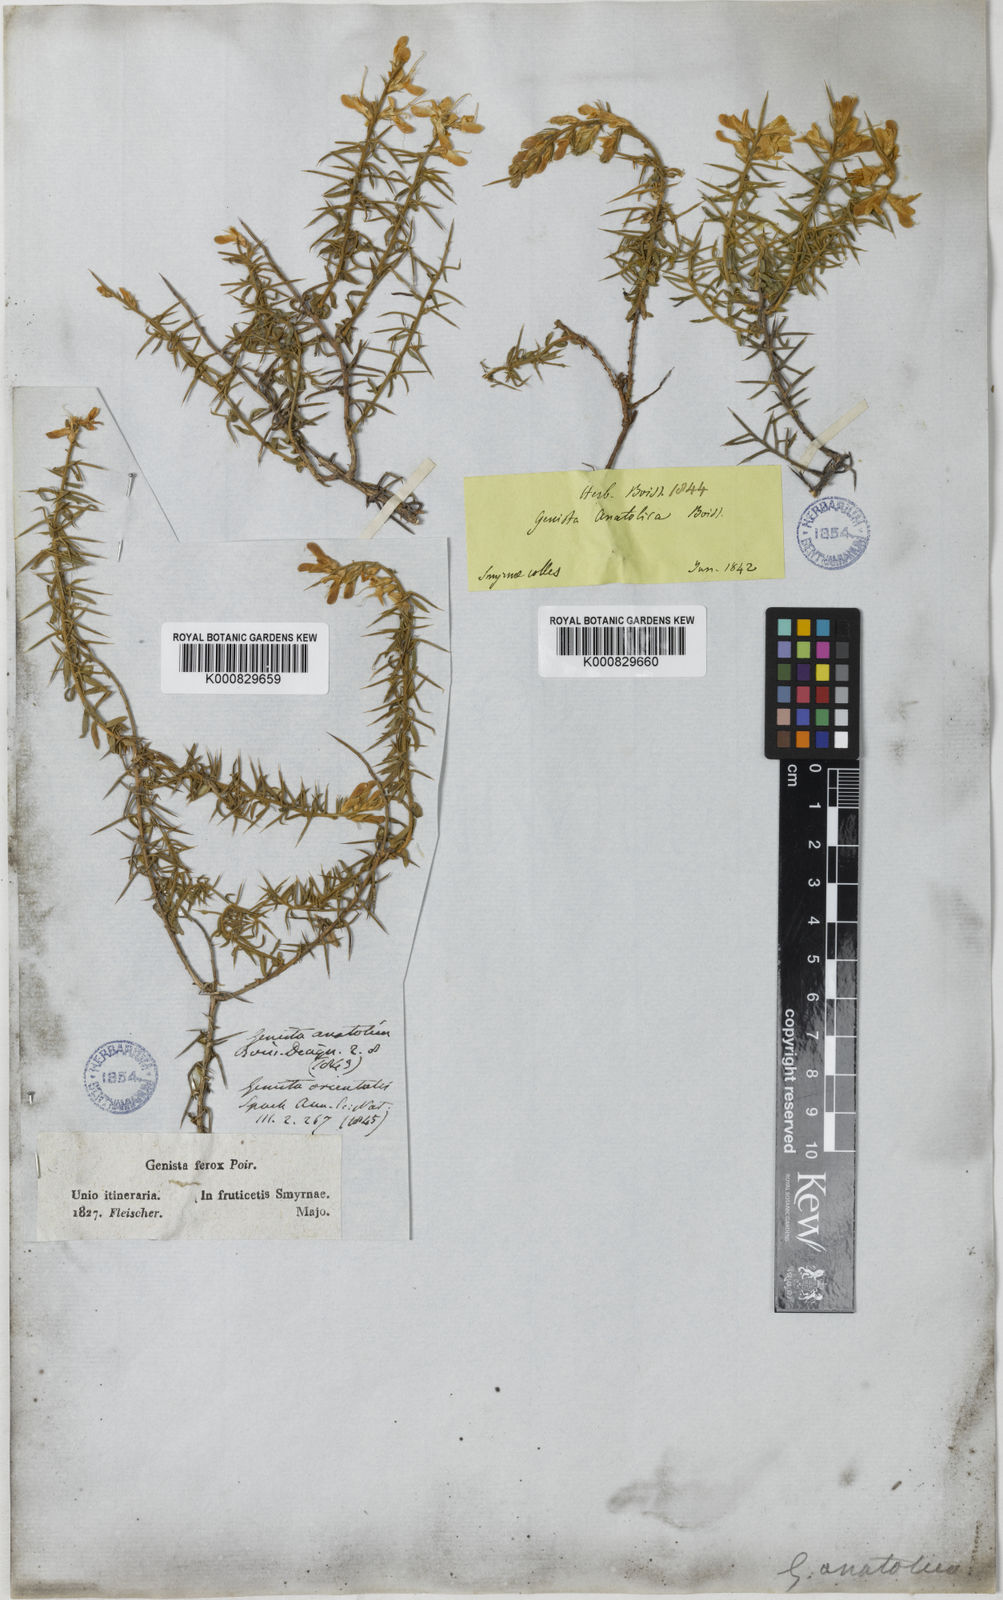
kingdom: Plantae
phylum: Tracheophyta
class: Magnoliopsida
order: Fabales
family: Fabaceae
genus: Genista
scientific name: Genista anatolica
